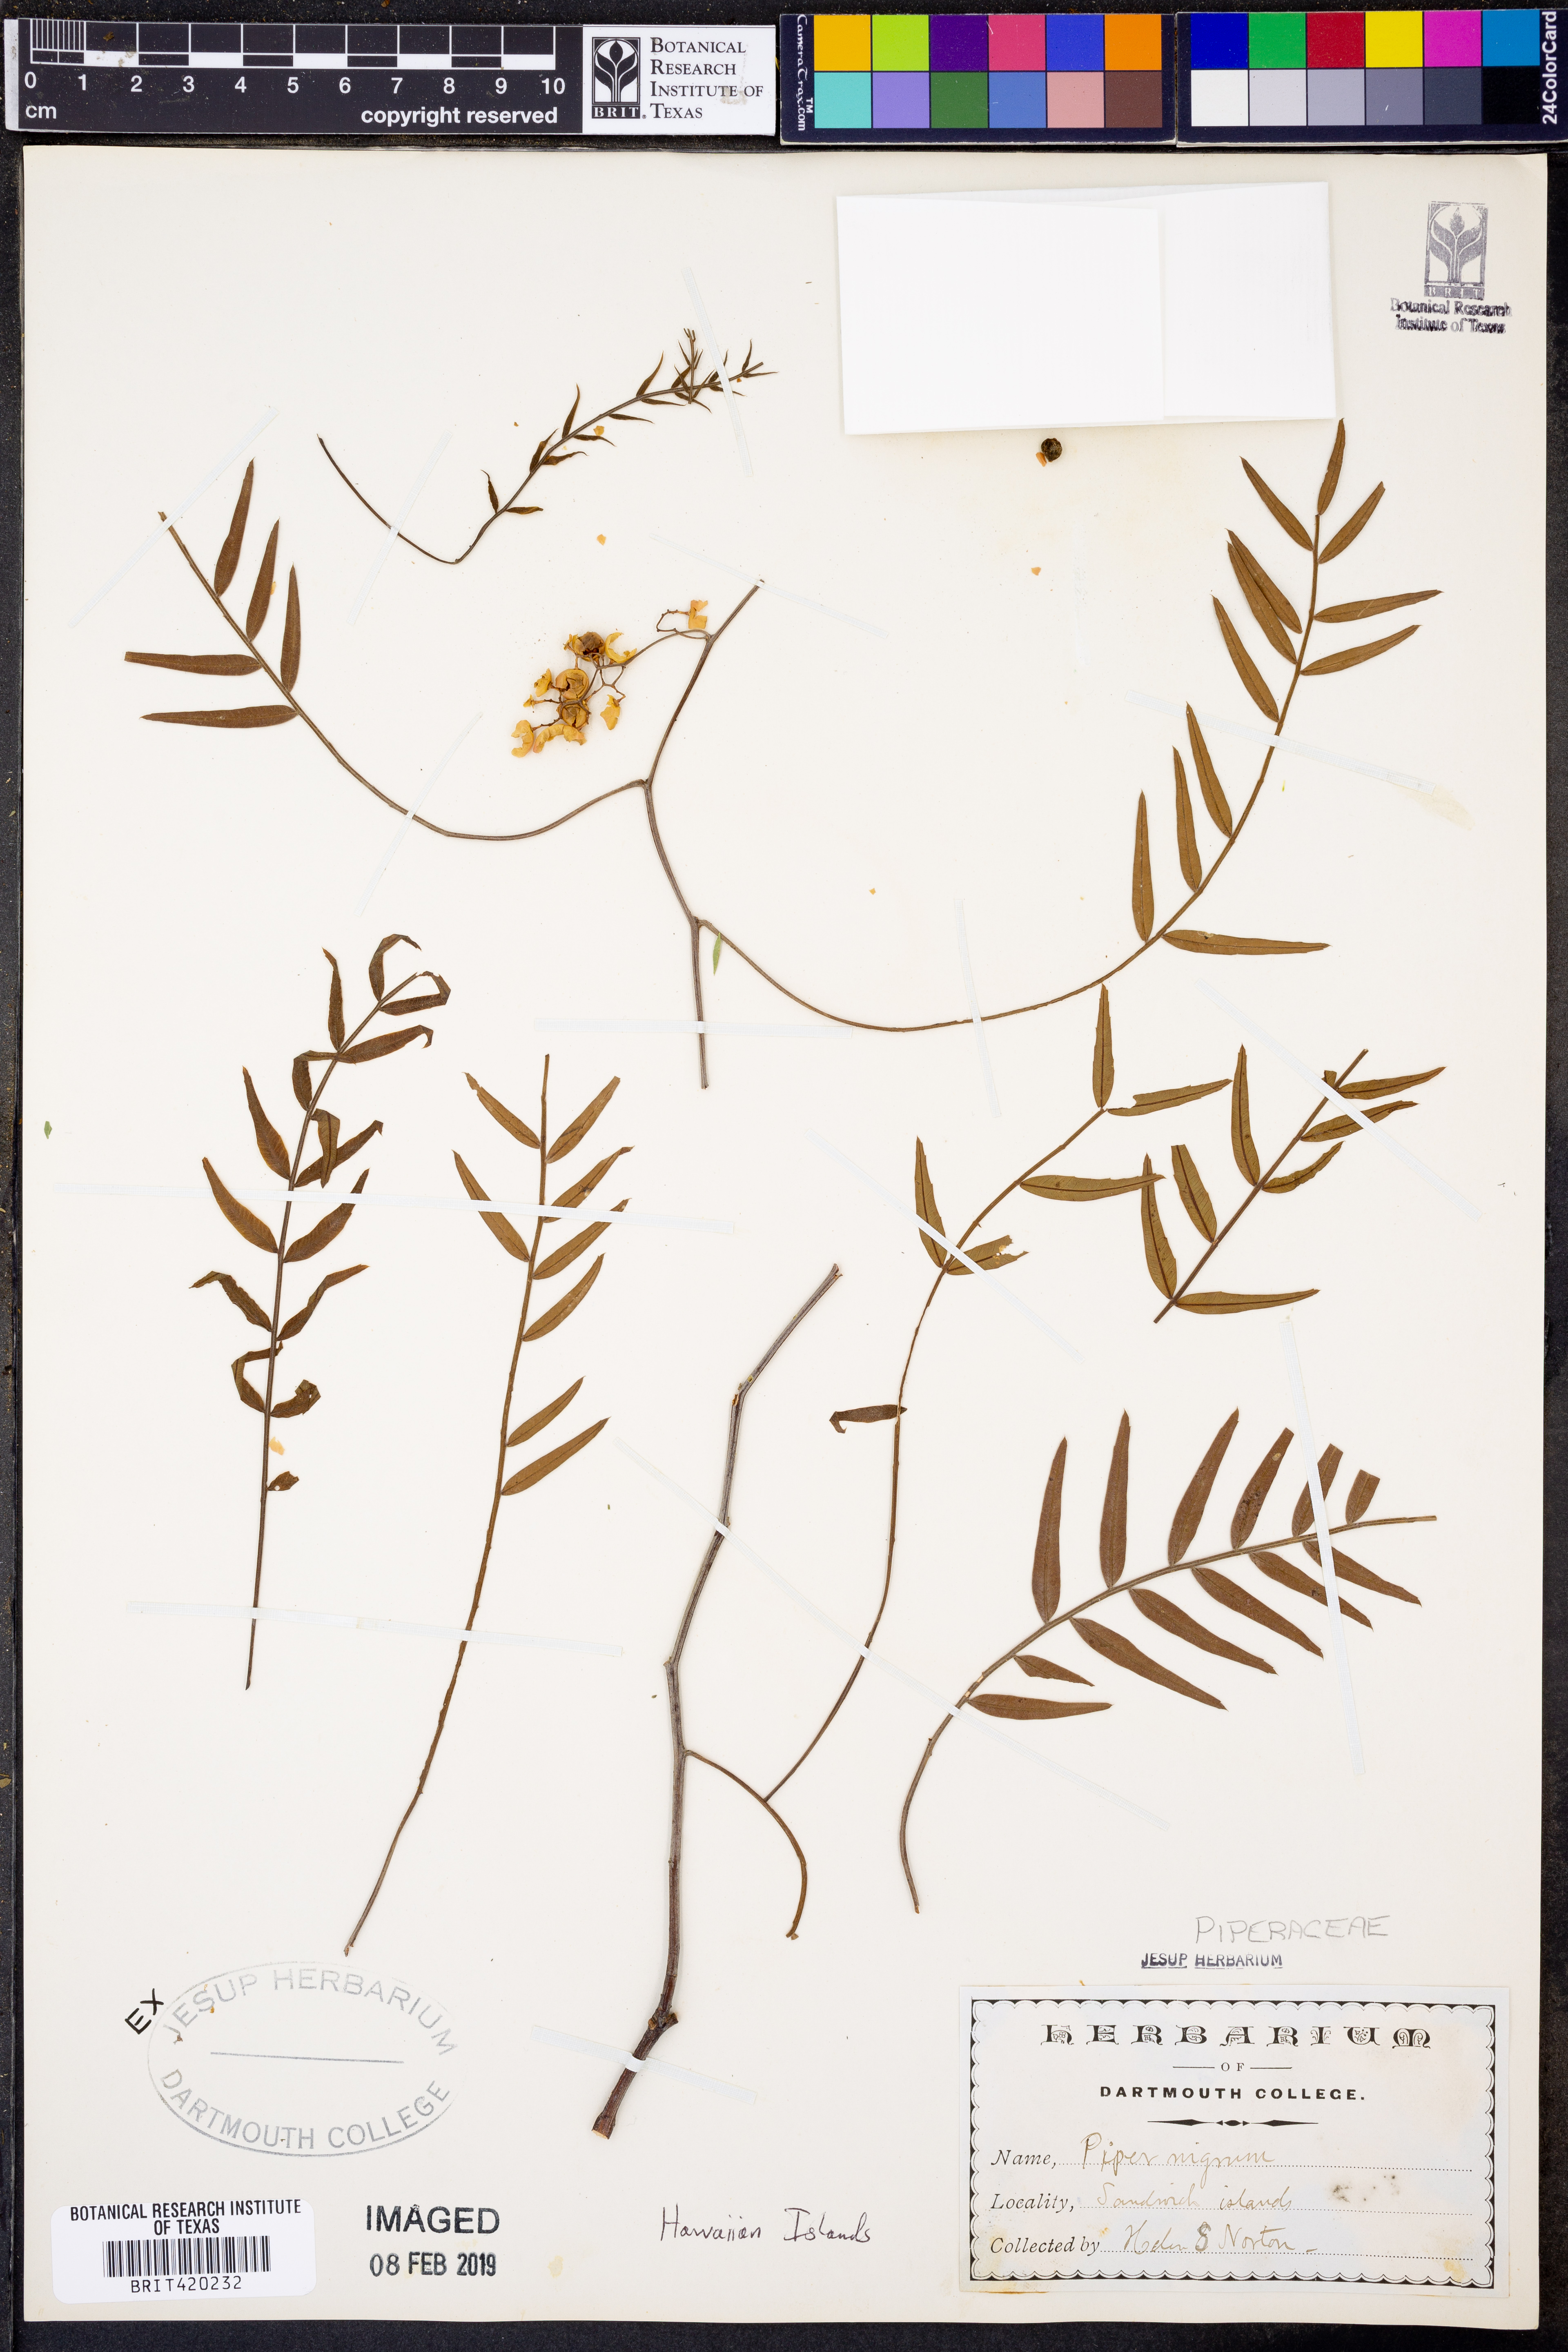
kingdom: Plantae
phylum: Tracheophyta
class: Magnoliopsida
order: Piperales
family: Piperaceae
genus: Piper
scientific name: Piper nigrum
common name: Black pepper
